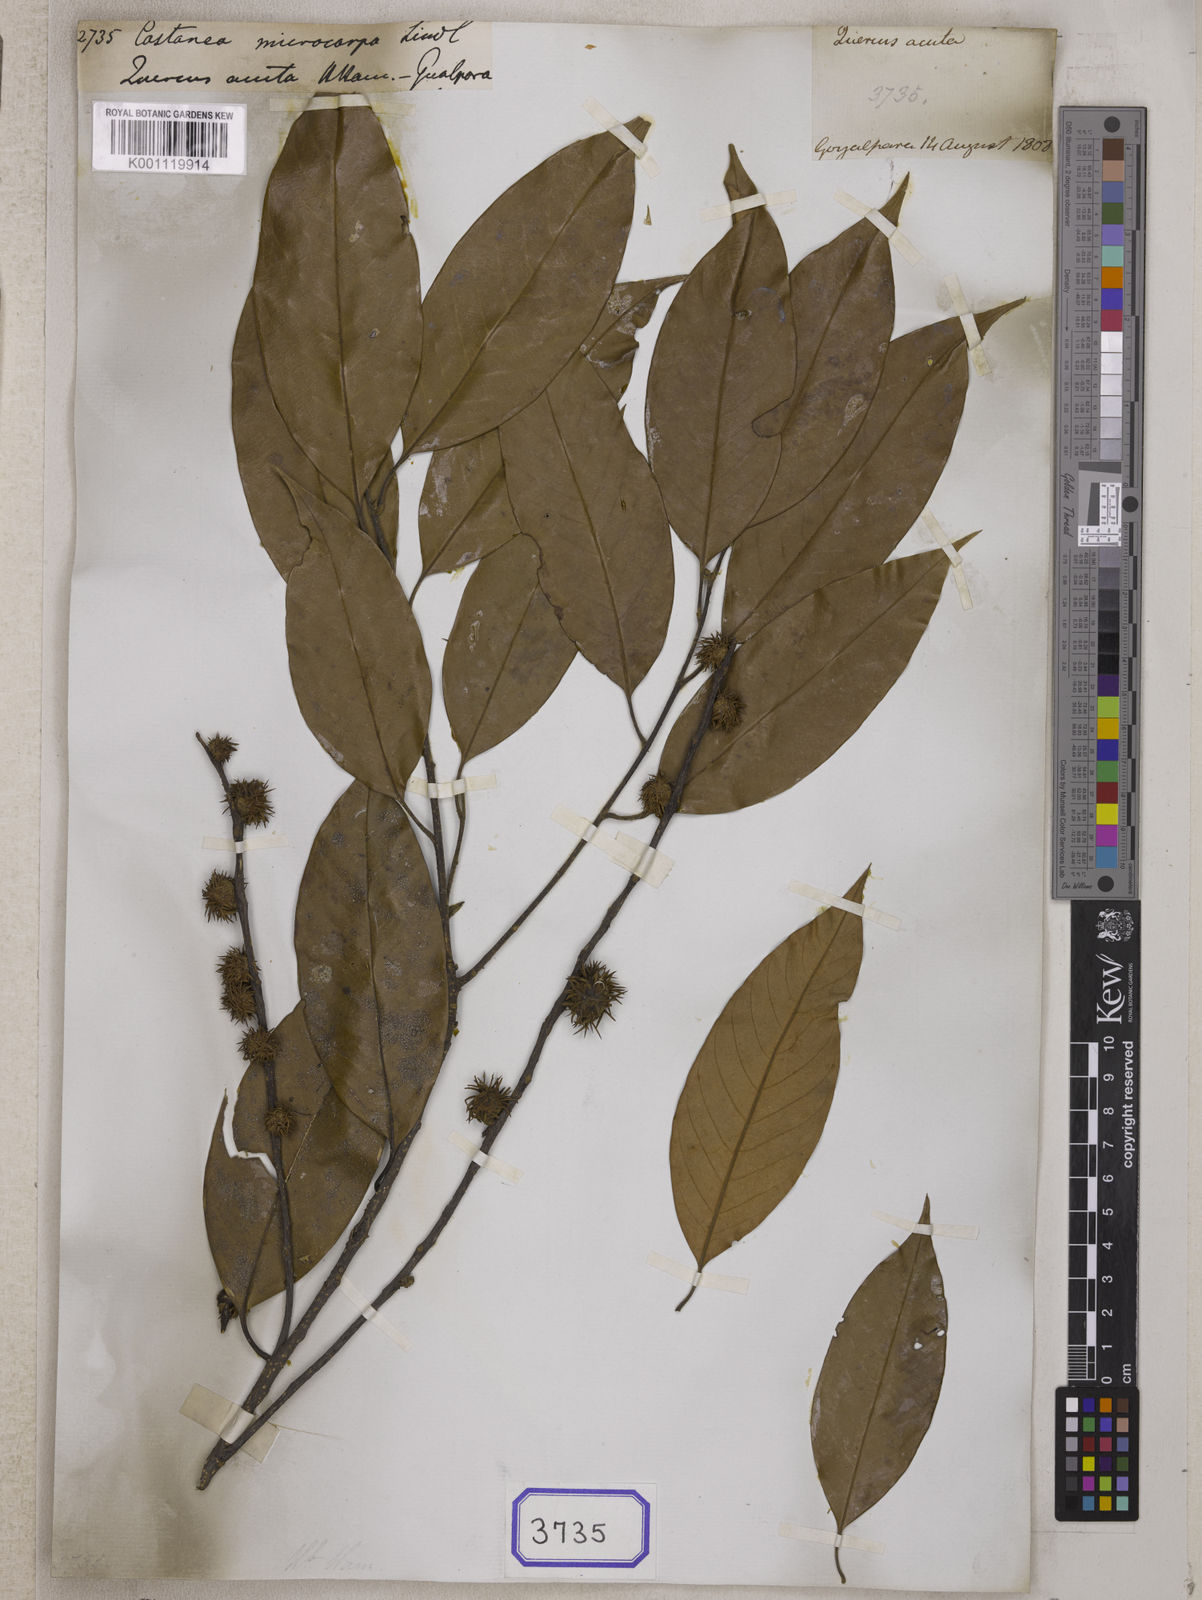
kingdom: Plantae
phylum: Tracheophyta
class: Magnoliopsida
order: Fagales
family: Fagaceae
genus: Castanopsis
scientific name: Castanopsis tribuloides
